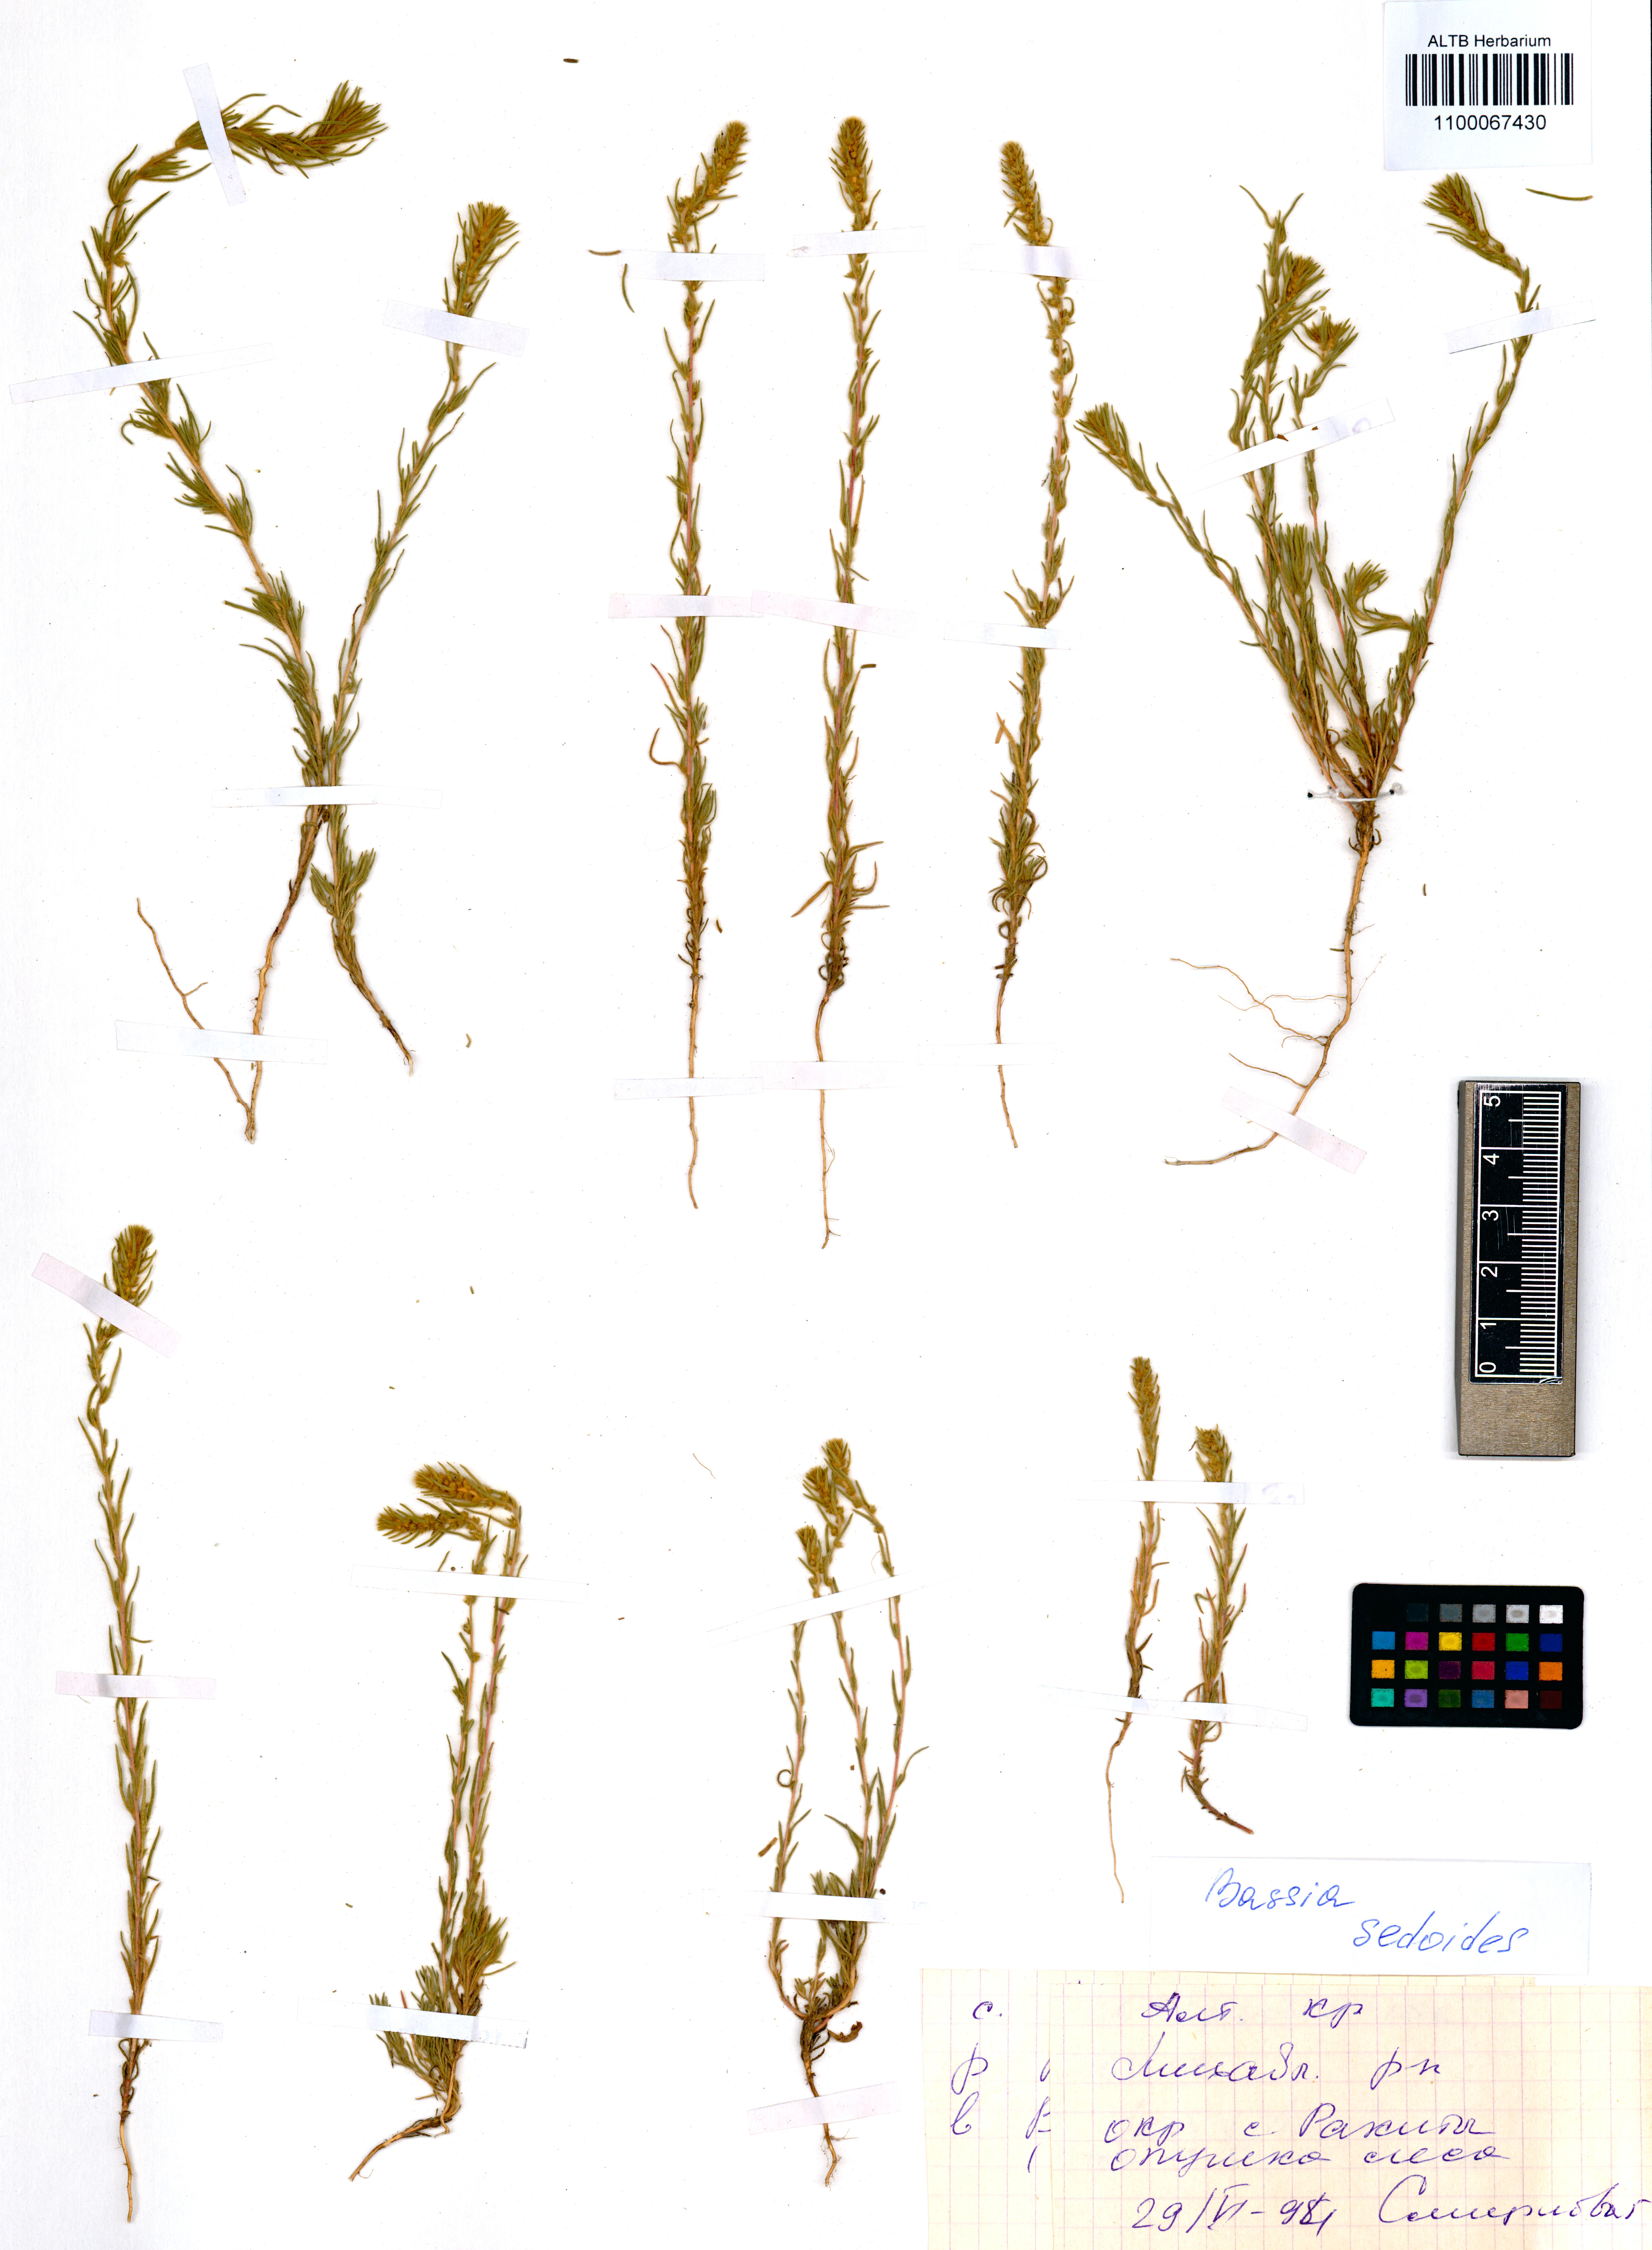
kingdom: Plantae
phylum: Tracheophyta
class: Magnoliopsida
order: Caryophyllales
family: Amaranthaceae
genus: Sedobassia
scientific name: Sedobassia sedoides
